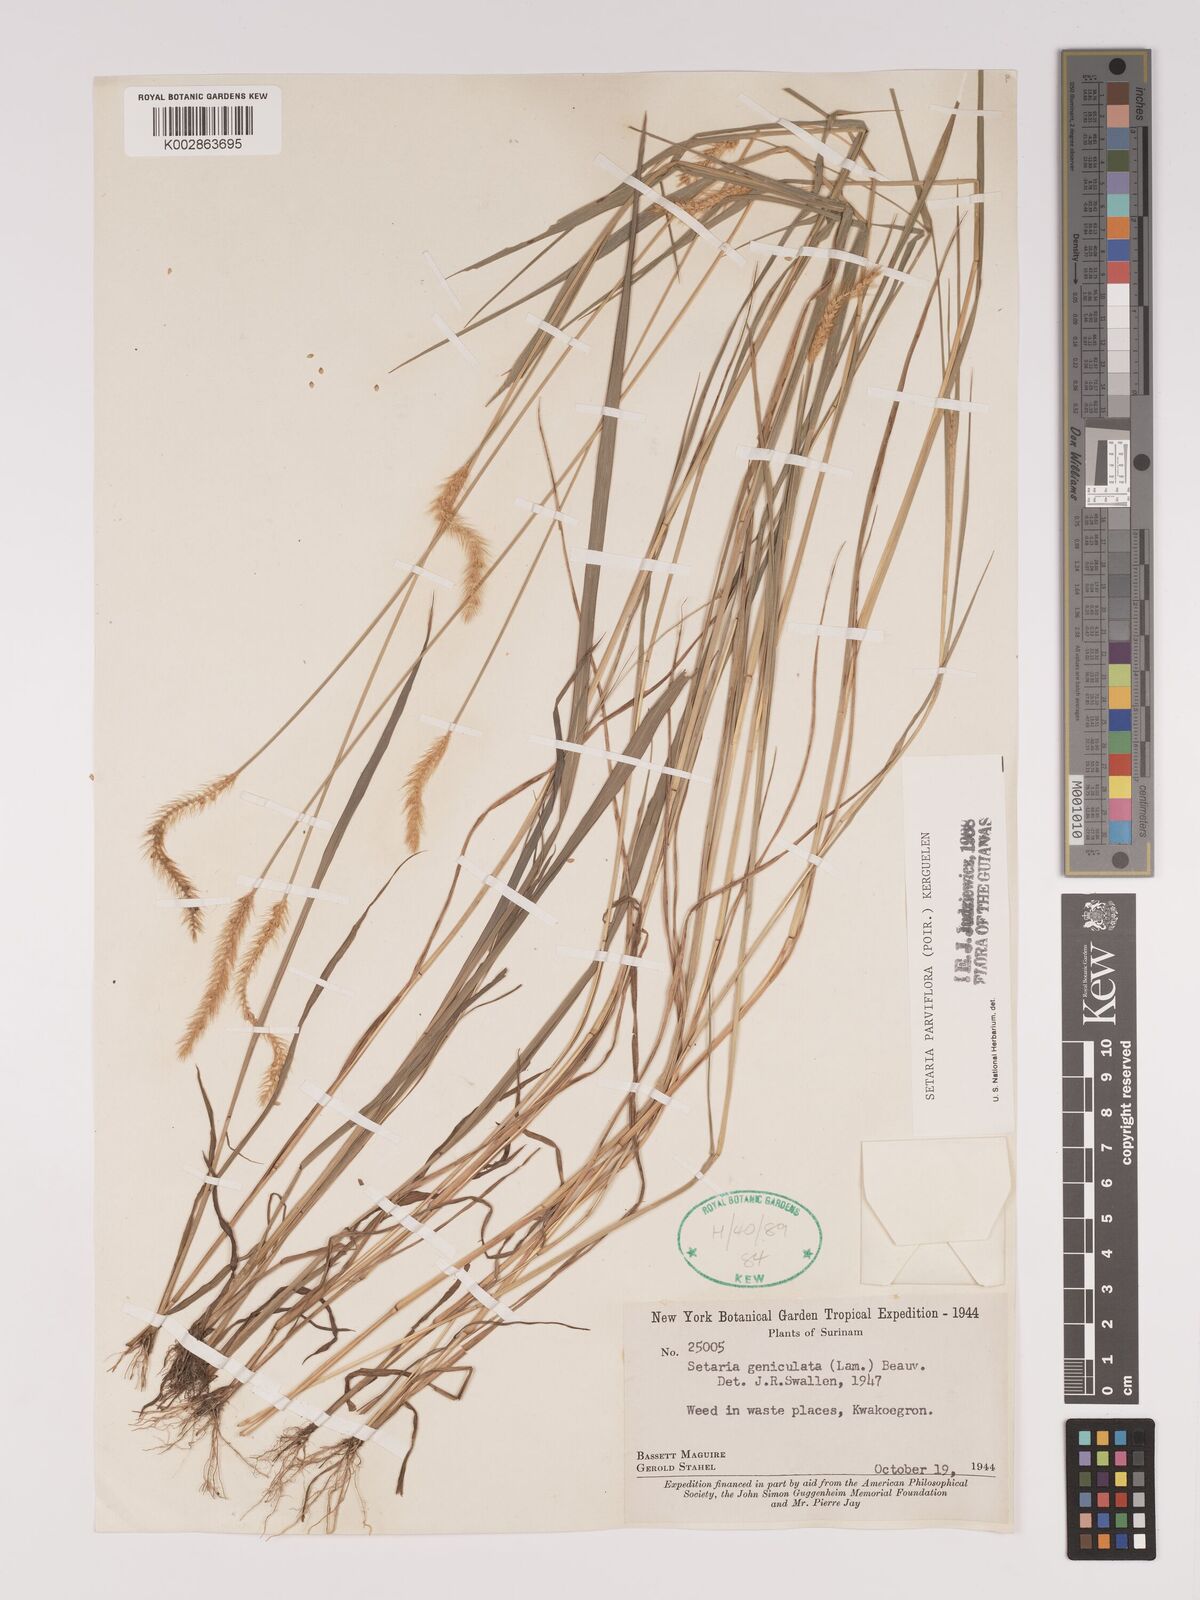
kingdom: Plantae
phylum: Tracheophyta
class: Liliopsida
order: Poales
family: Poaceae
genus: Setaria
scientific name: Setaria parviflora
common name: Knotroot bristle-grass
